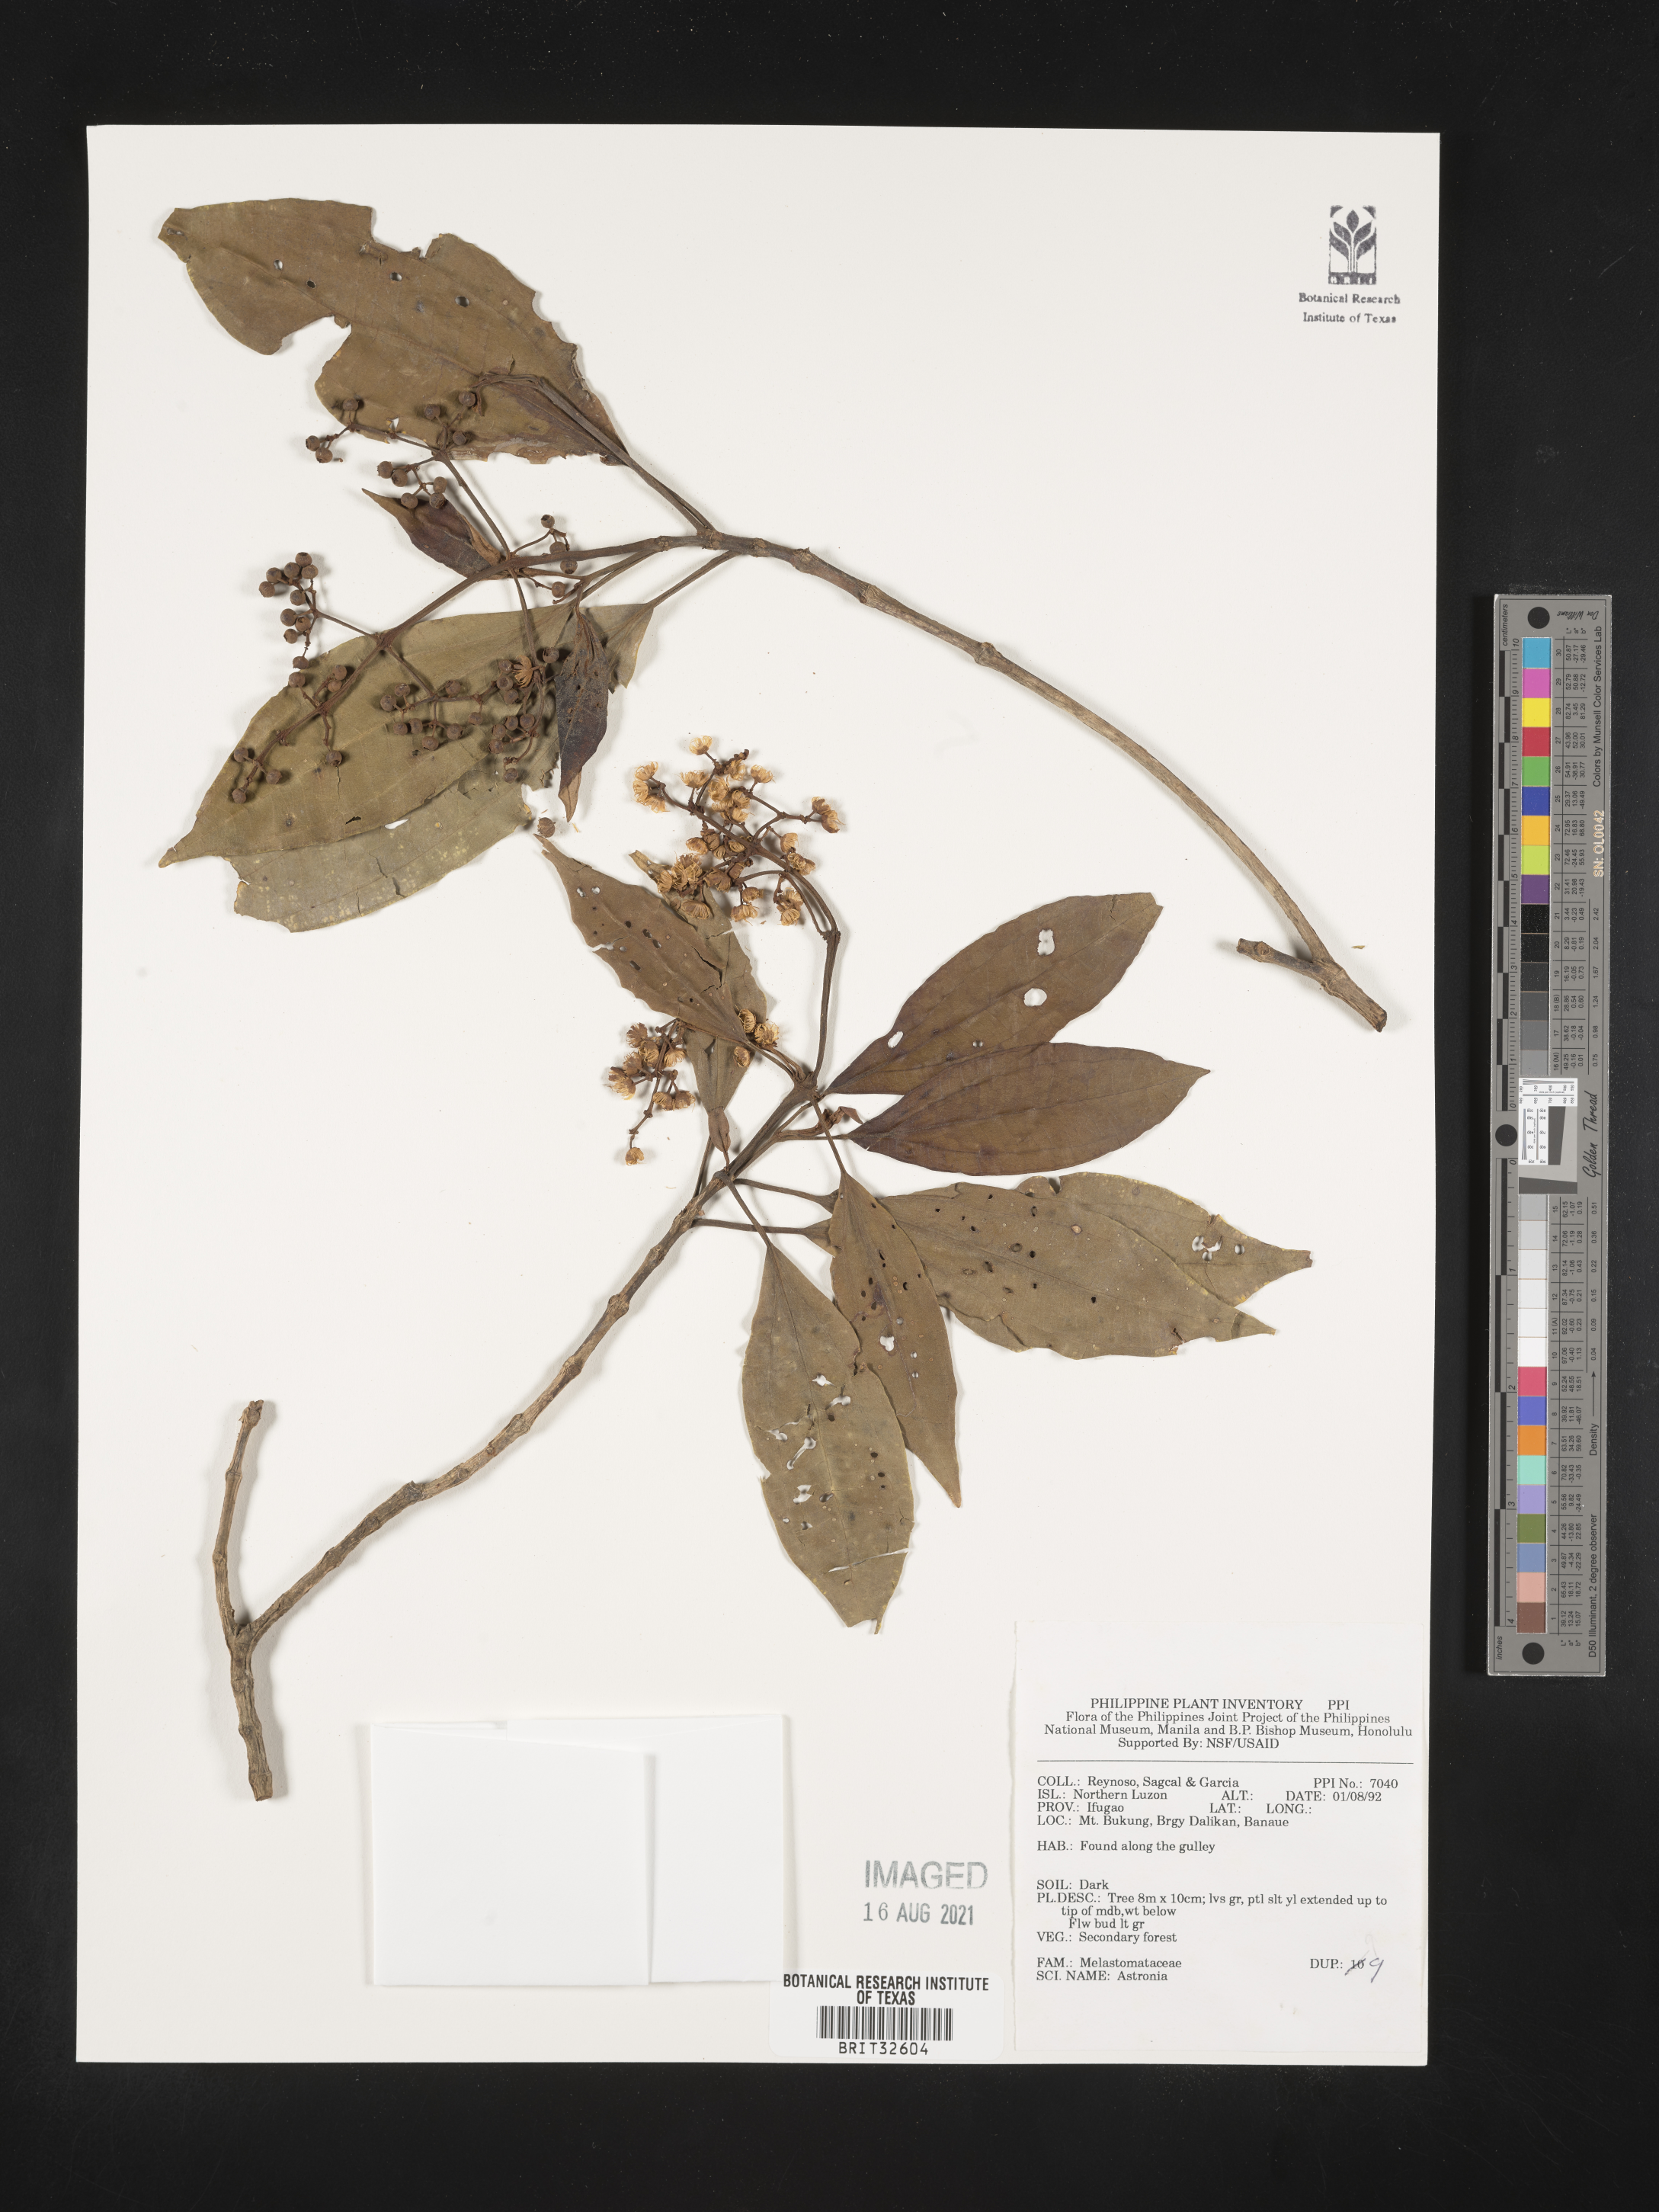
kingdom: Plantae
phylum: Tracheophyta
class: Magnoliopsida
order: Myrtales
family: Melastomataceae
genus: Astronia
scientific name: Astronia
